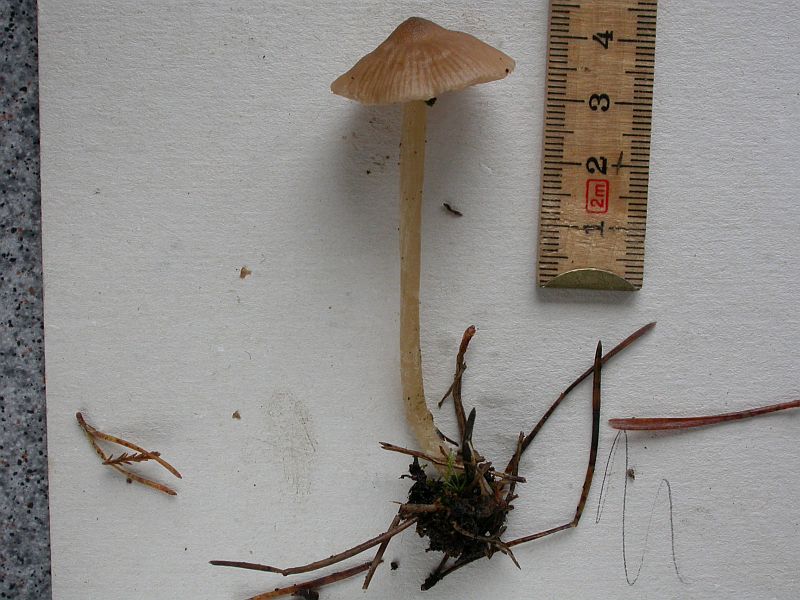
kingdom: Fungi
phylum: Basidiomycota
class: Agaricomycetes
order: Agaricales
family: Entolomataceae
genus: Entoloma
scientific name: Entoloma cetratum
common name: voks-rødblad
